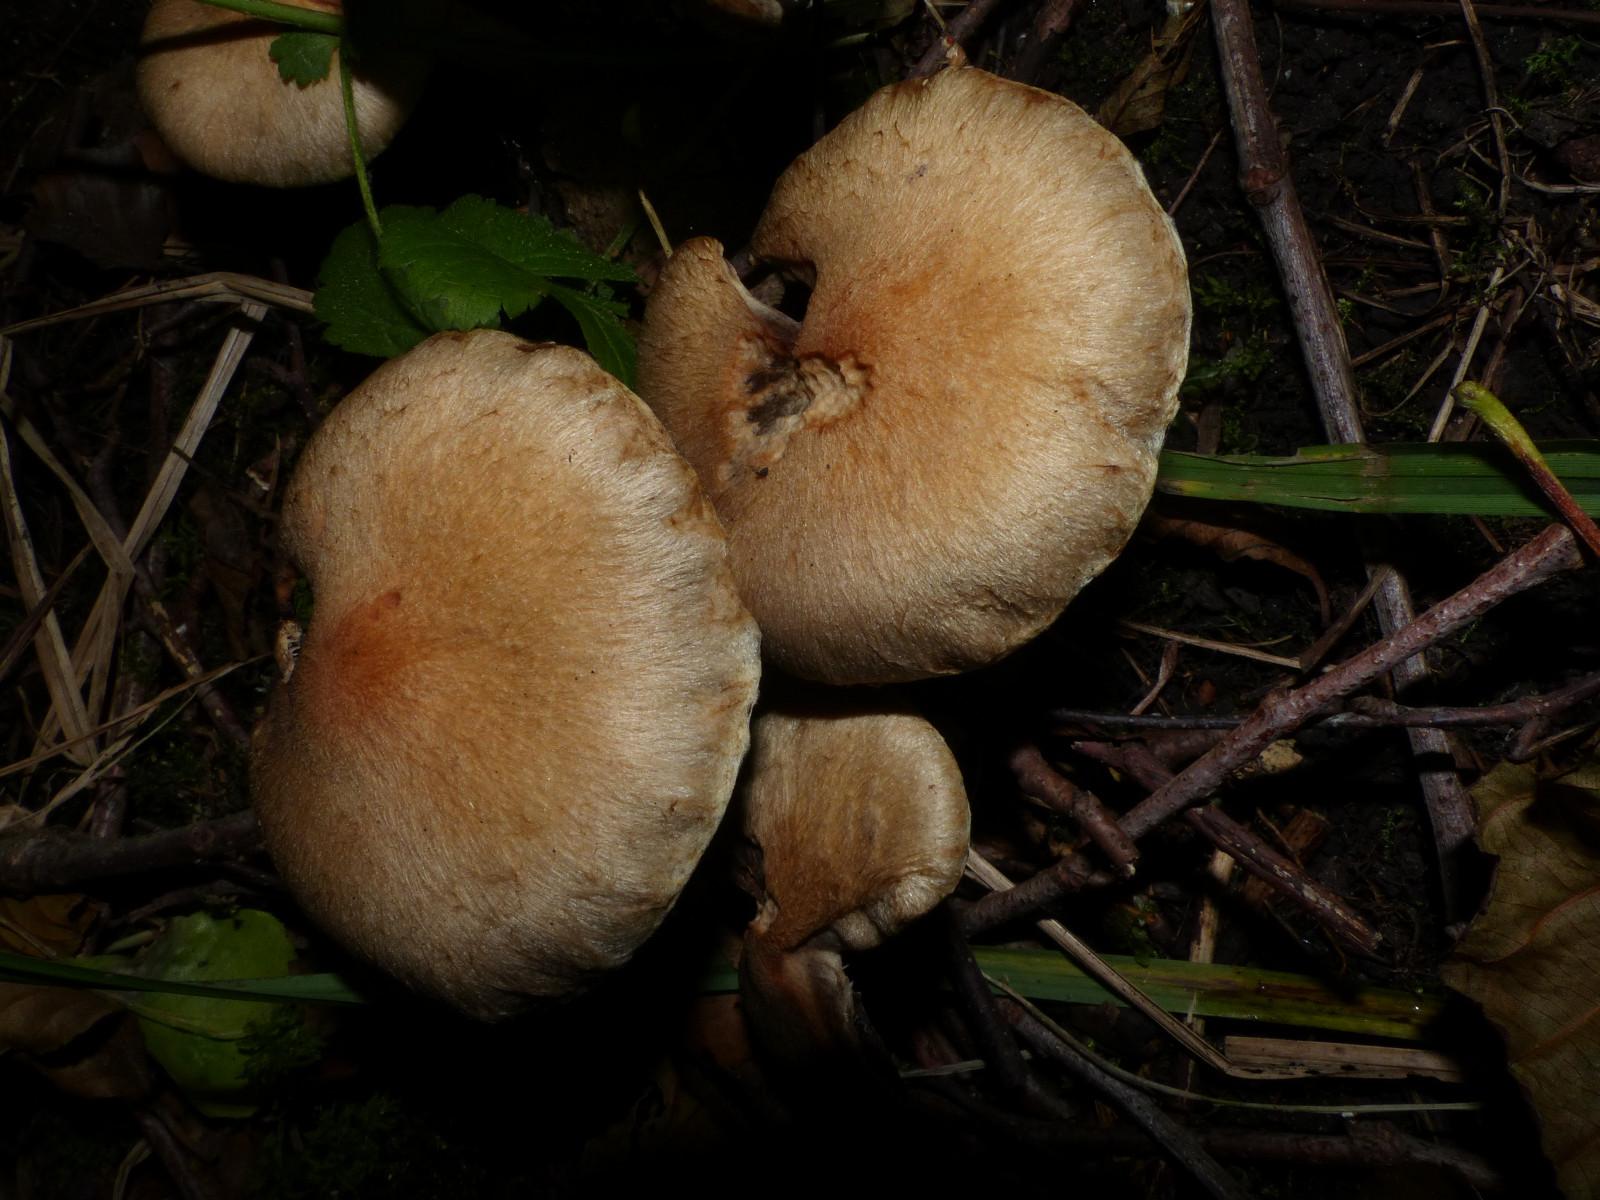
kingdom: Fungi
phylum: Basidiomycota
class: Agaricomycetes
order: Agaricales
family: Psathyrellaceae
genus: Lacrymaria
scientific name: Lacrymaria lacrymabunda
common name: grædende mørkhat
